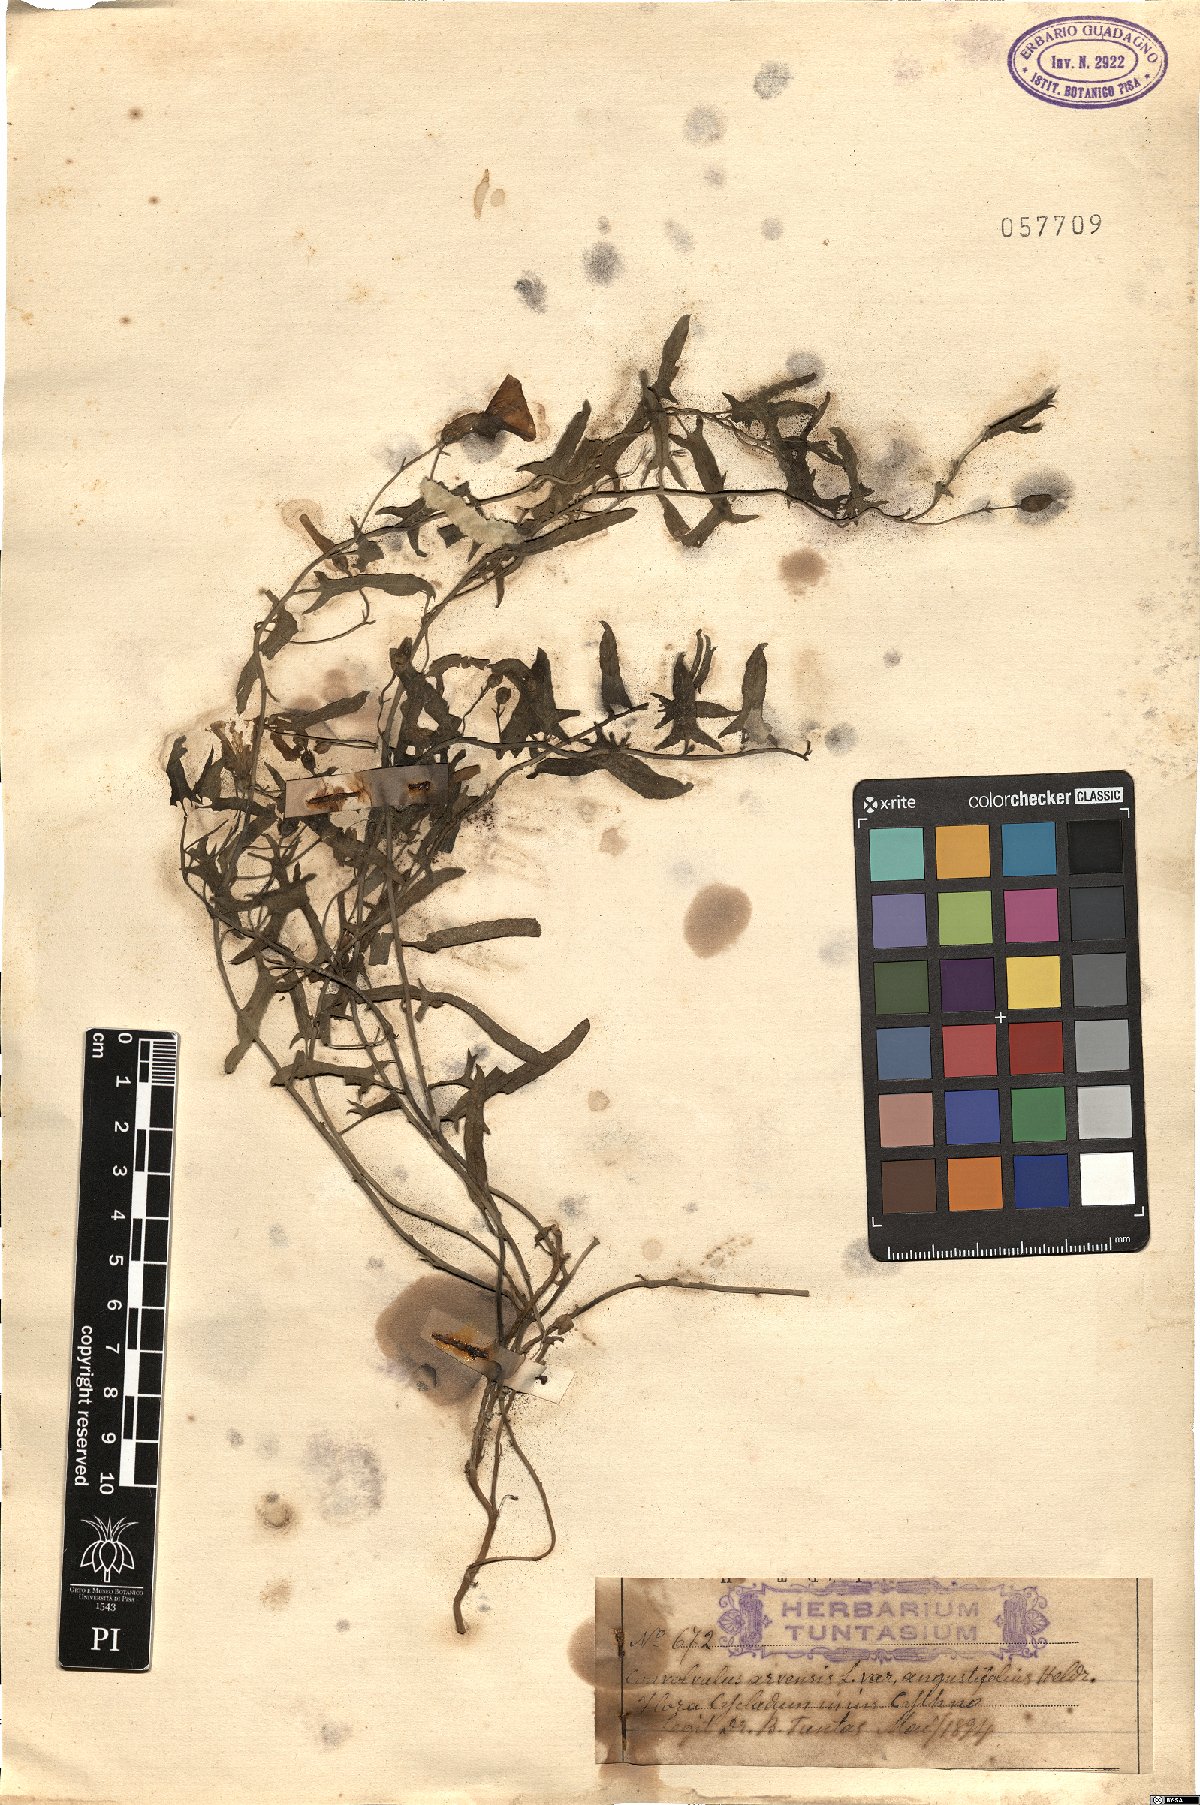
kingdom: Plantae
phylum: Tracheophyta
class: Magnoliopsida
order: Solanales
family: Convolvulaceae
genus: Convolvulus
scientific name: Convolvulus arvensis
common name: Field bindweed
